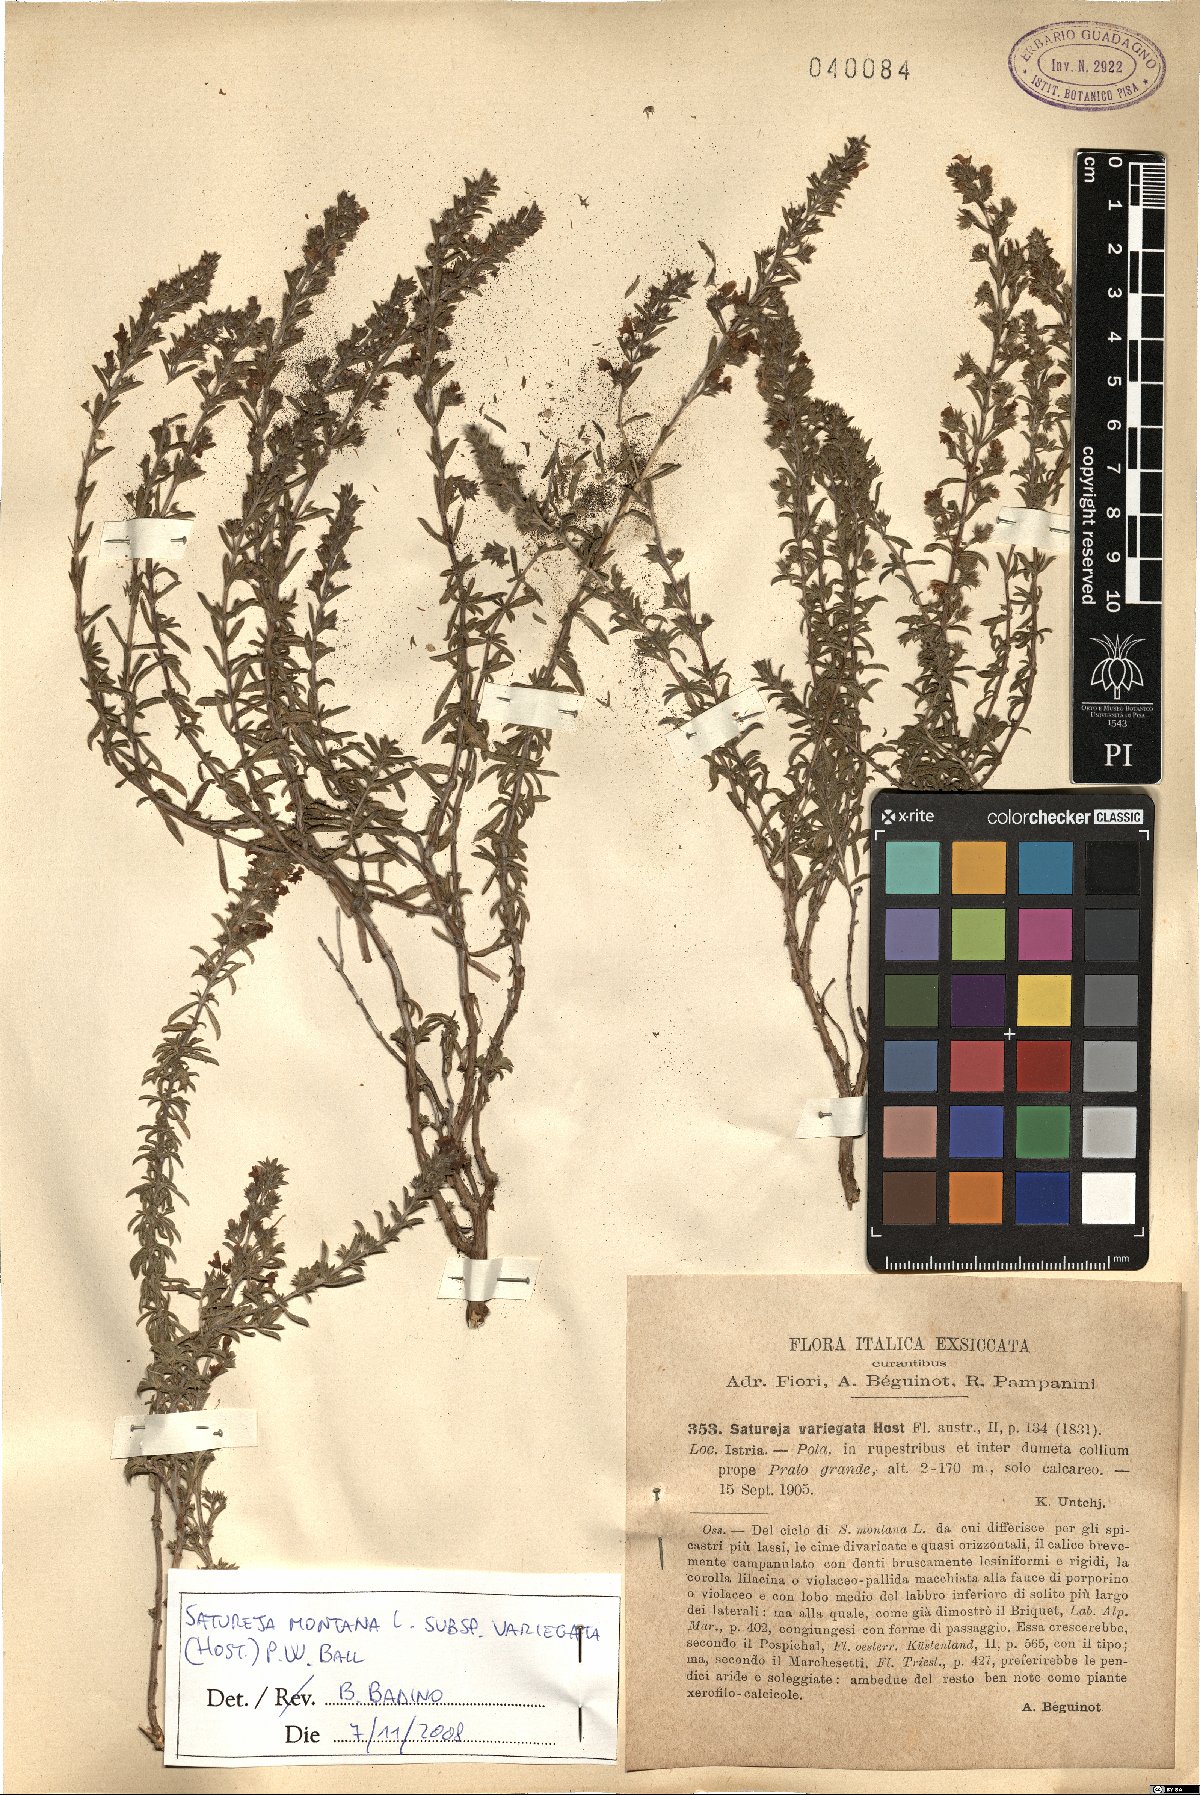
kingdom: Plantae
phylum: Tracheophyta
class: Magnoliopsida
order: Lamiales
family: Lamiaceae
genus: Satureja
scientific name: Satureja montana
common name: Winter savory
